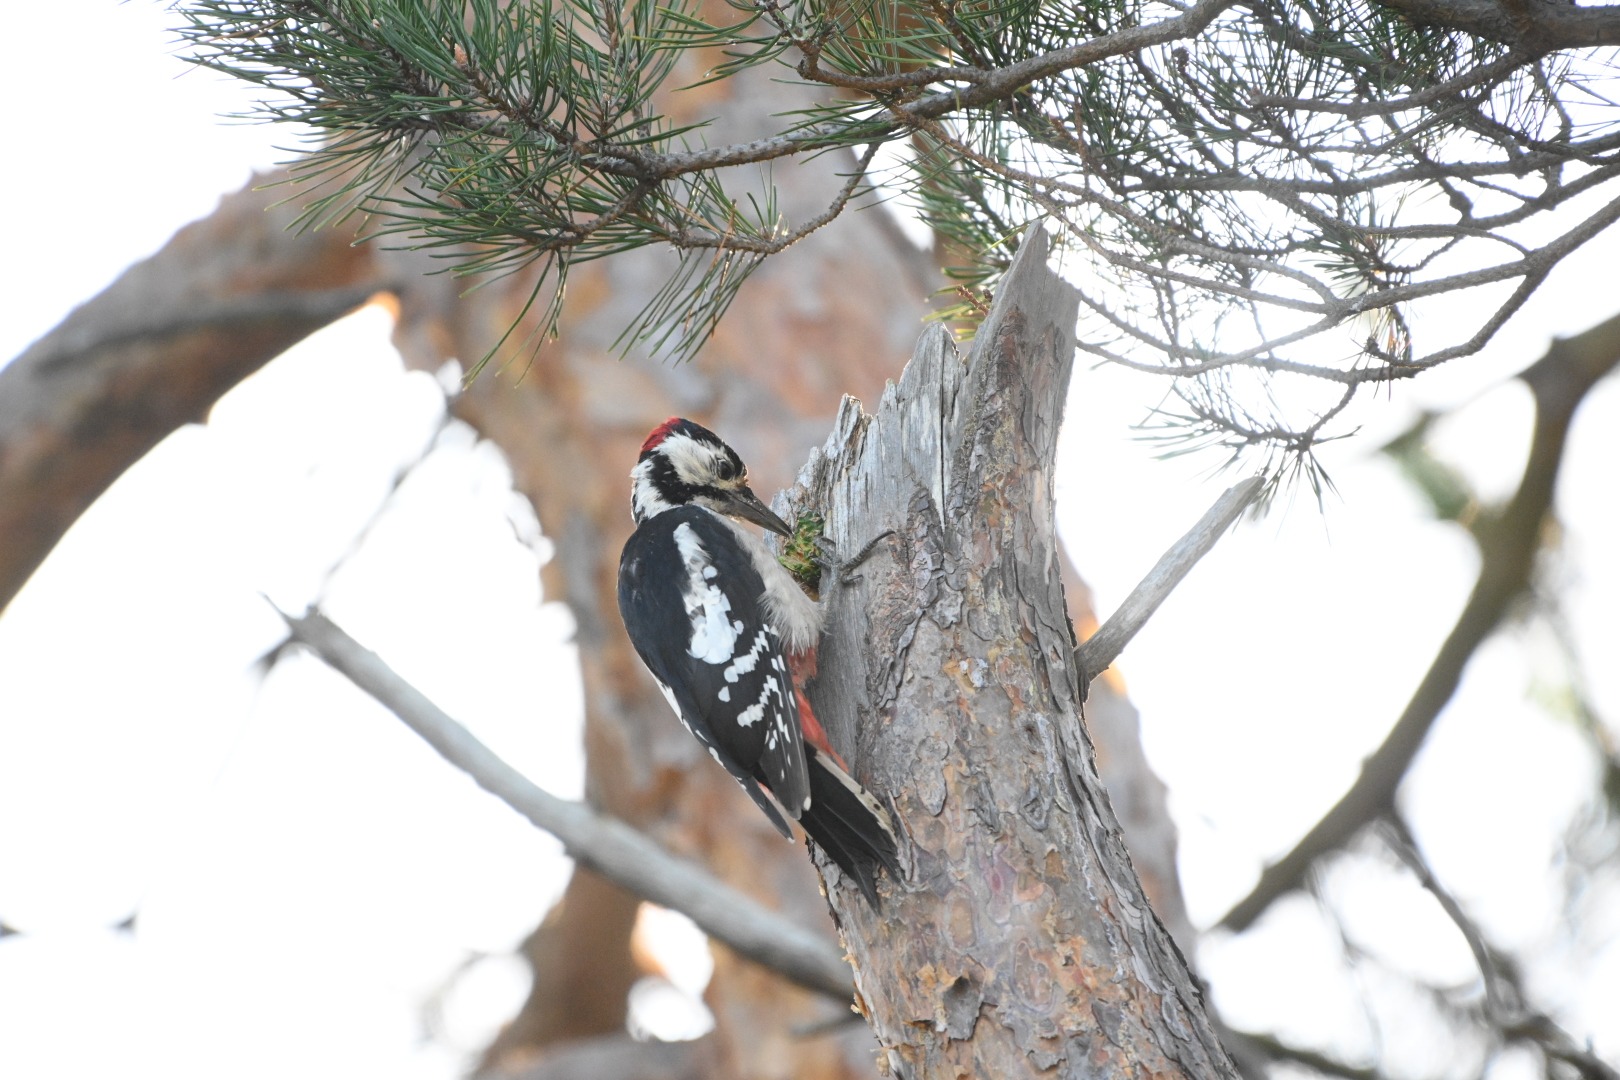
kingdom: Animalia
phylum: Chordata
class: Aves
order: Piciformes
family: Picidae
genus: Dendrocopos
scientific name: Dendrocopos major
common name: Stor flagspætte
